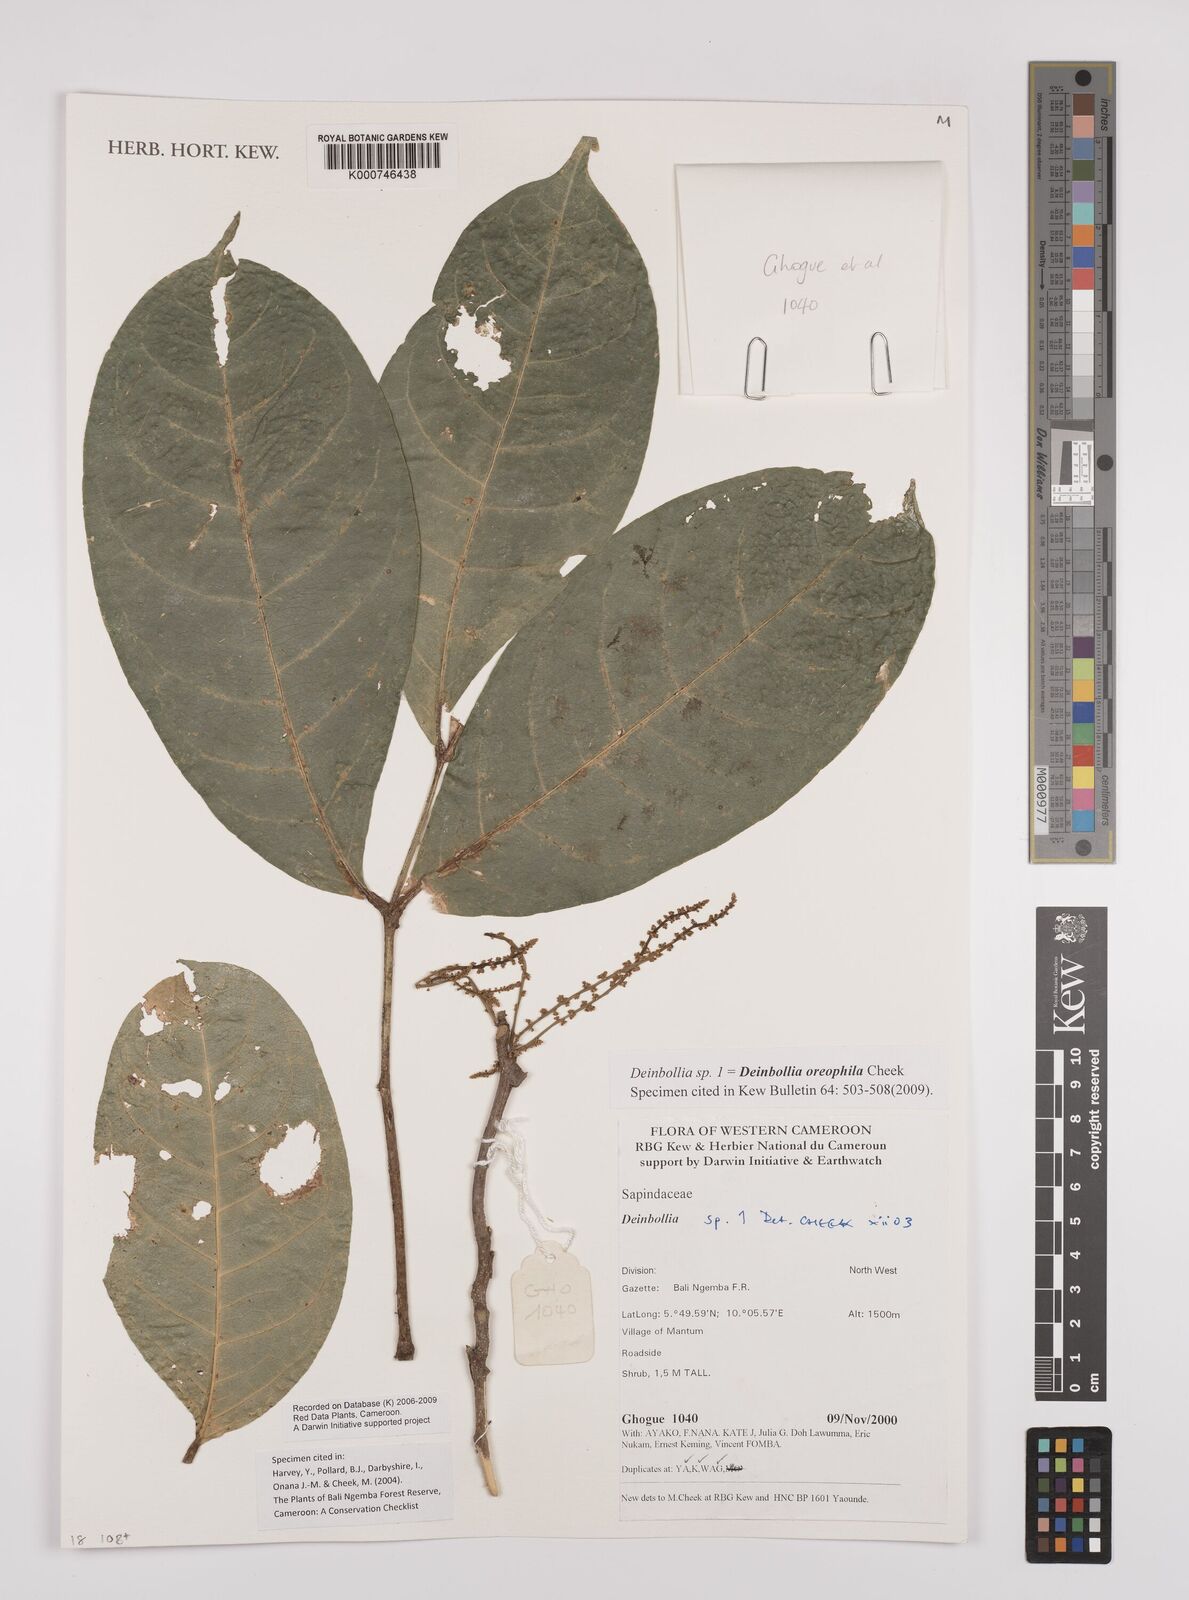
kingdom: Plantae
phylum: Tracheophyta
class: Magnoliopsida
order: Sapindales
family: Sapindaceae
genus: Deinbollia
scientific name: Deinbollia oreophila
